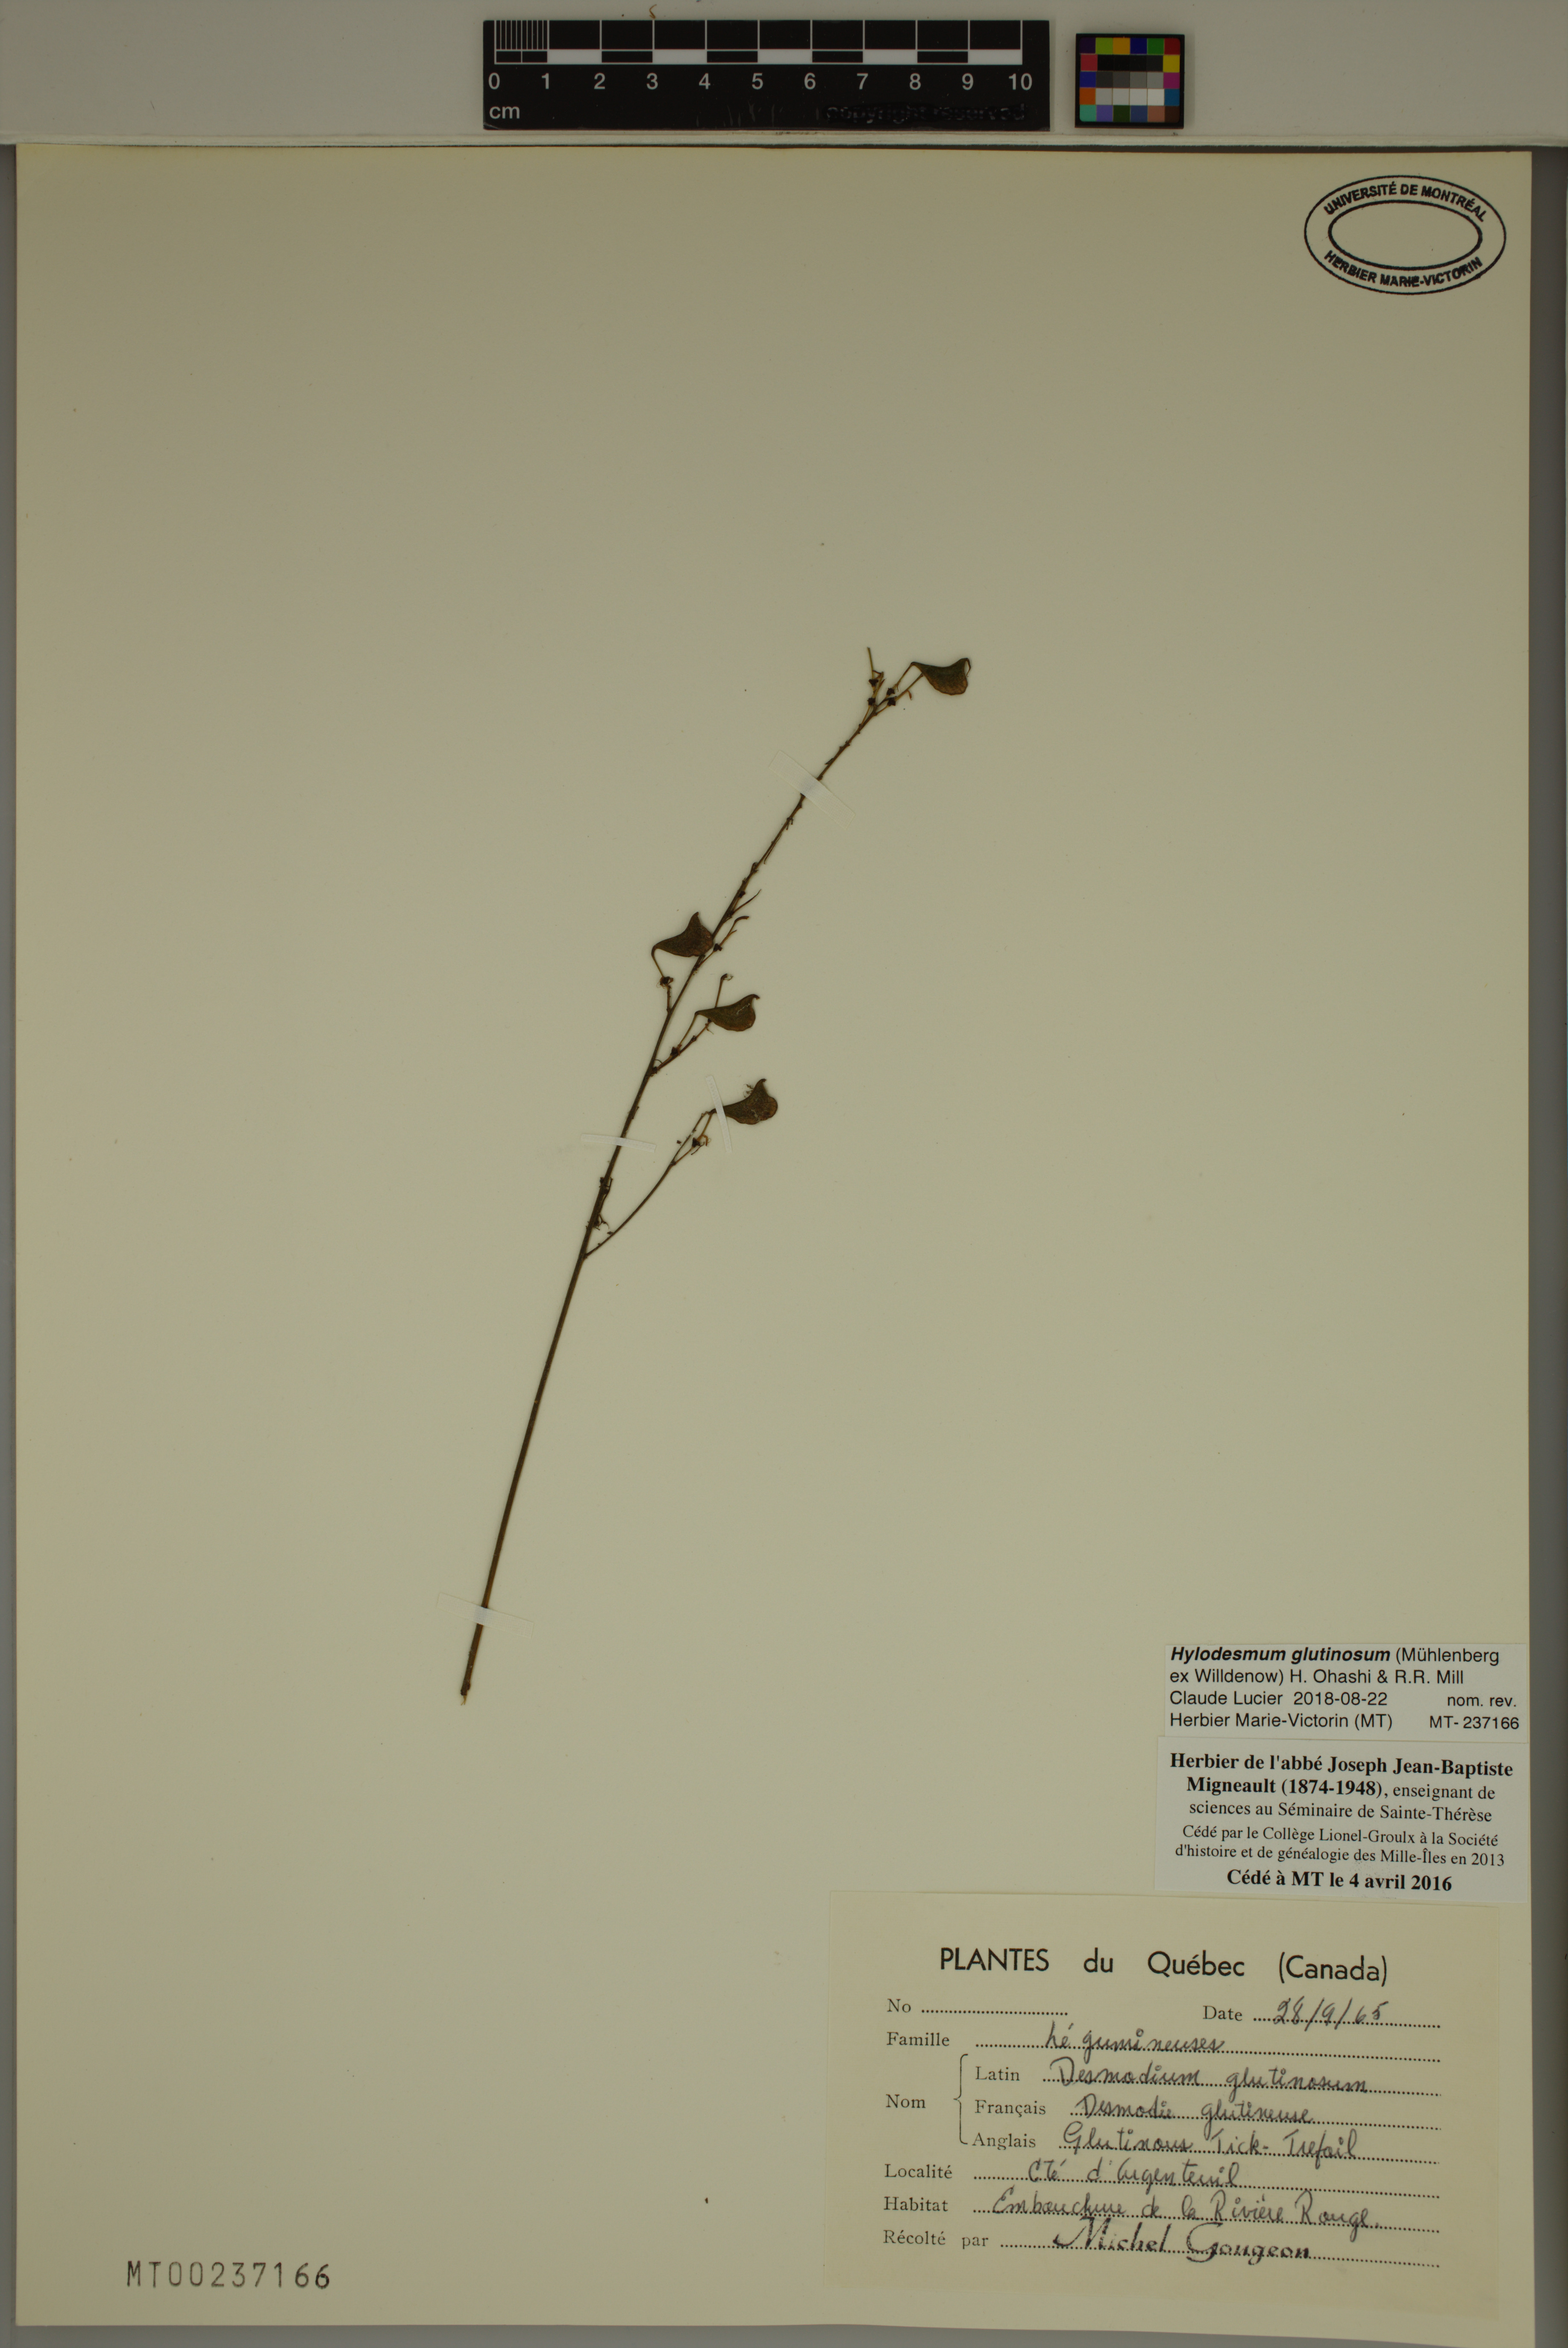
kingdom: Plantae
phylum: Tracheophyta
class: Magnoliopsida
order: Fabales
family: Fabaceae
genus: Hylodesmum
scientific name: Hylodesmum glutinosum
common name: Clustered-leaved tick-trefoil
